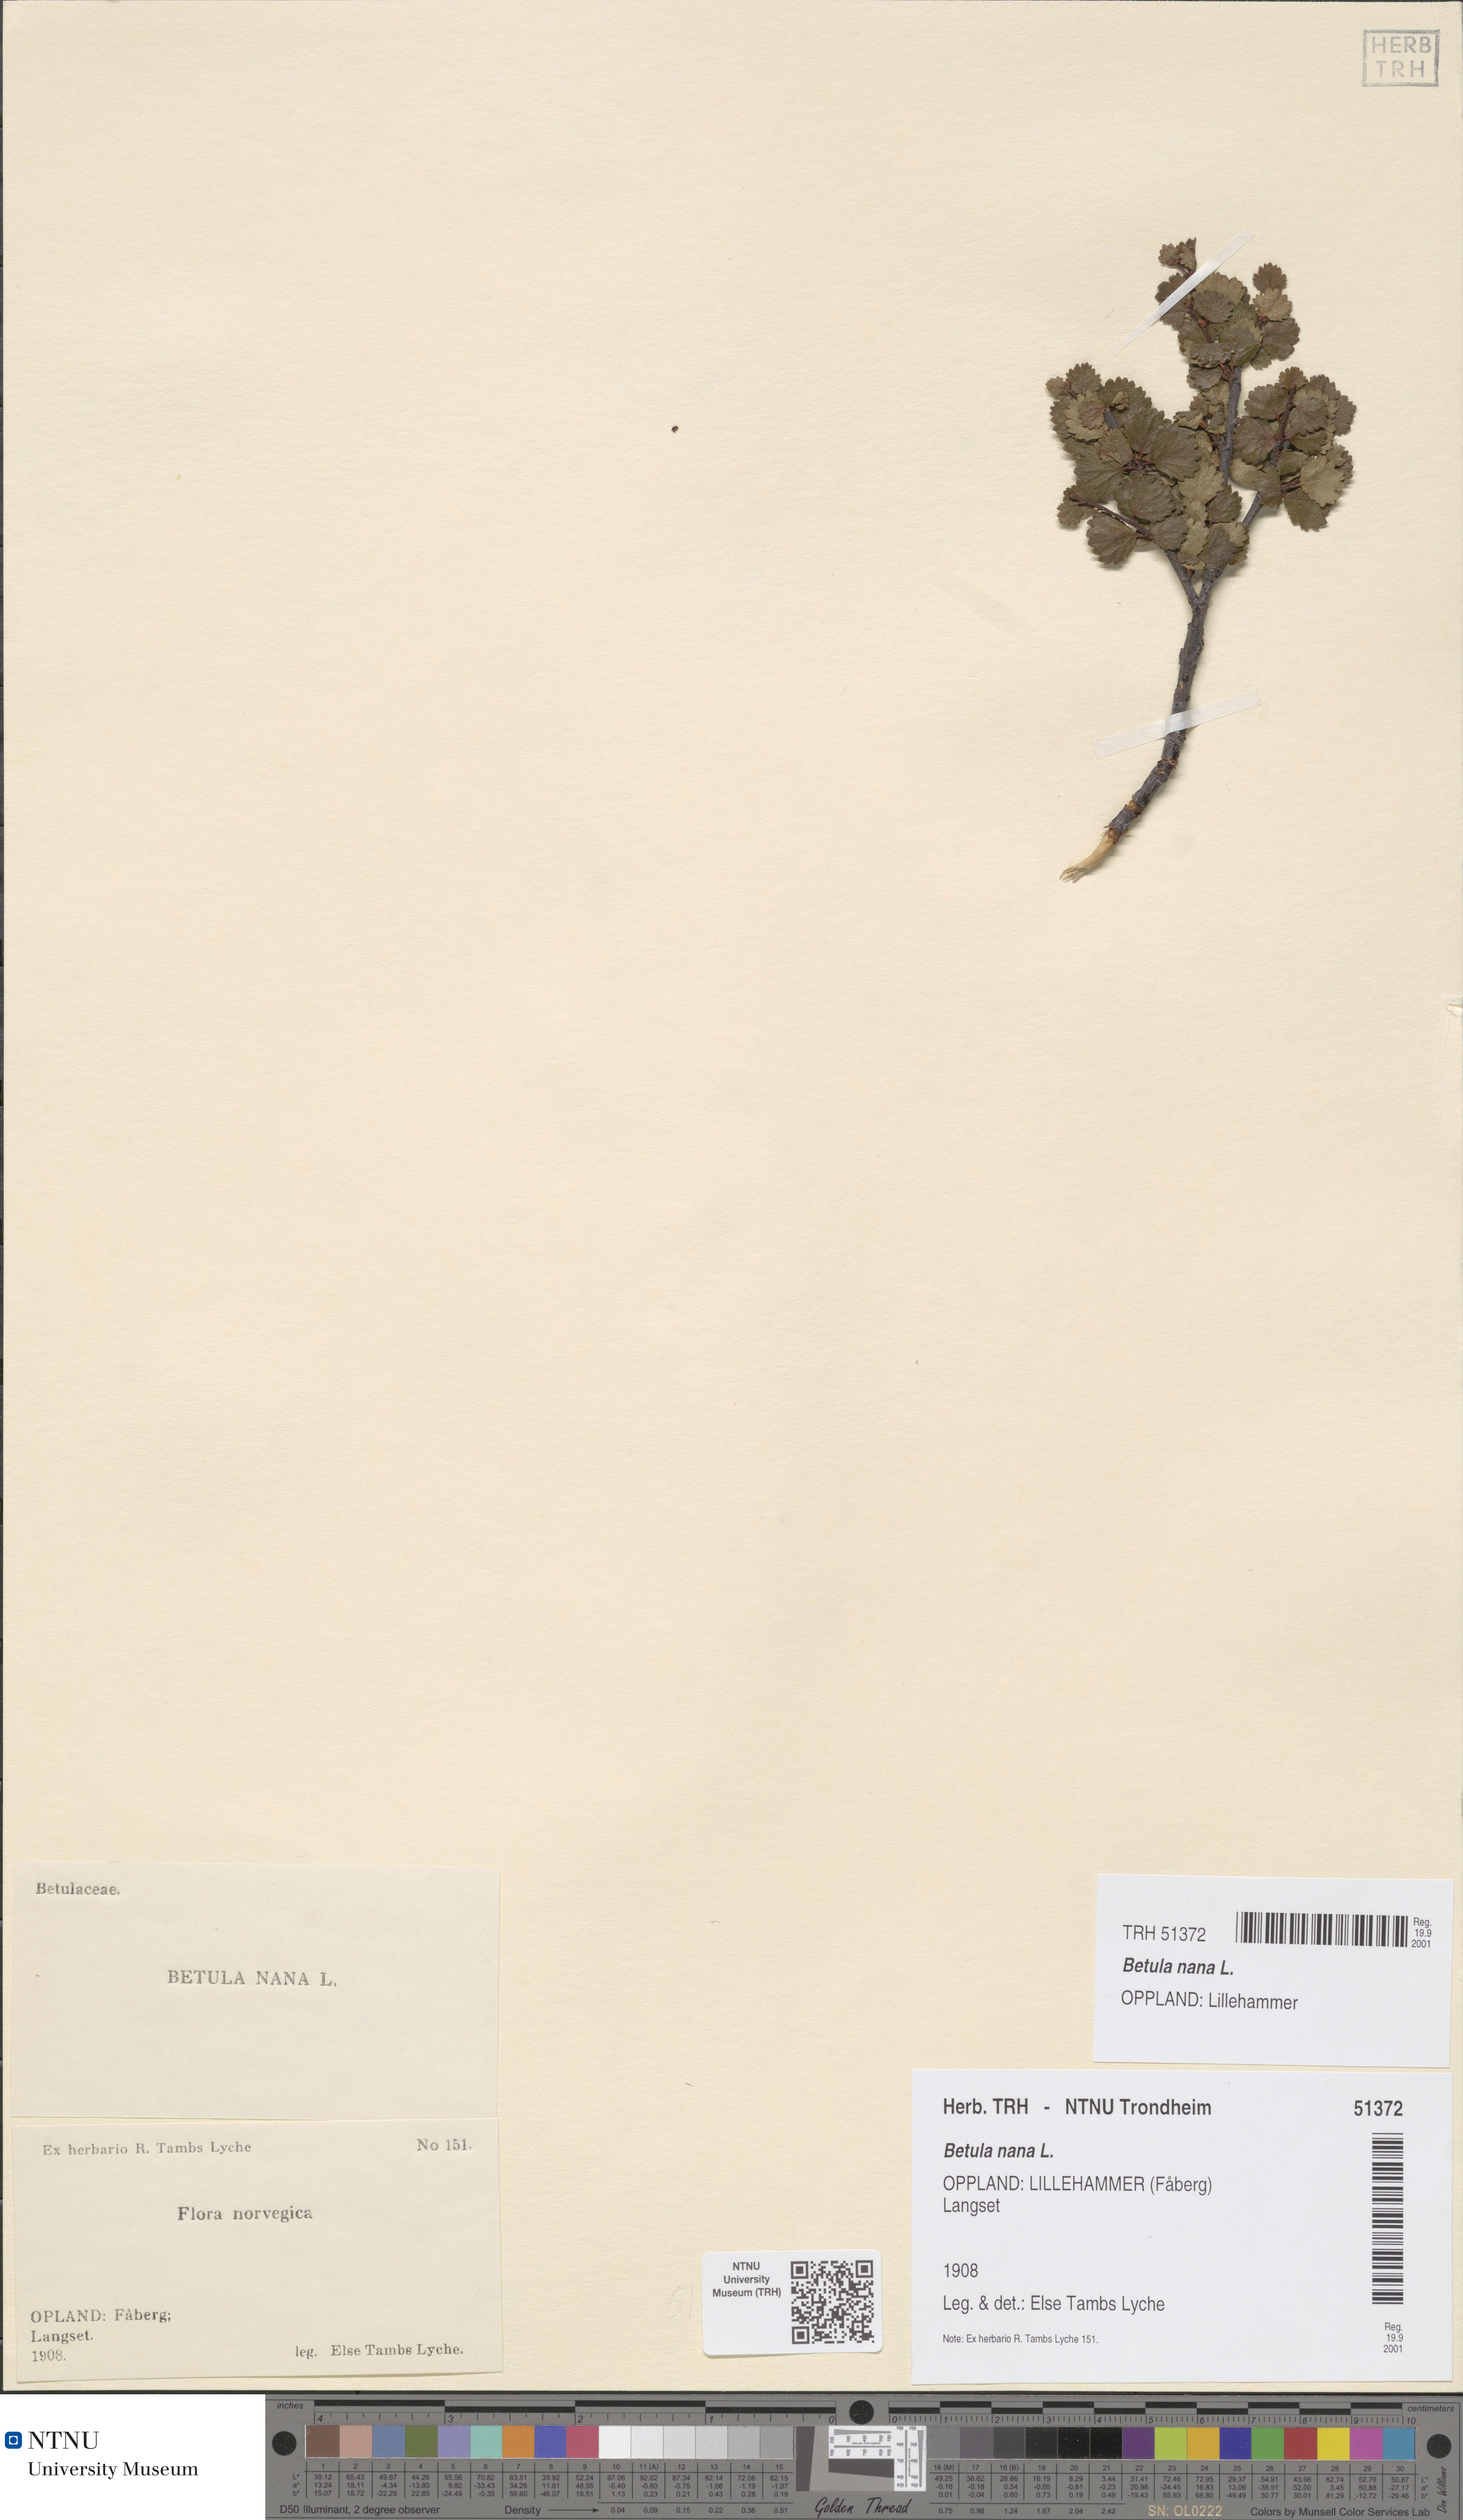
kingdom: Plantae
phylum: Tracheophyta
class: Magnoliopsida
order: Fagales
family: Betulaceae
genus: Betula
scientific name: Betula nana
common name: Arctic dwarf birch
